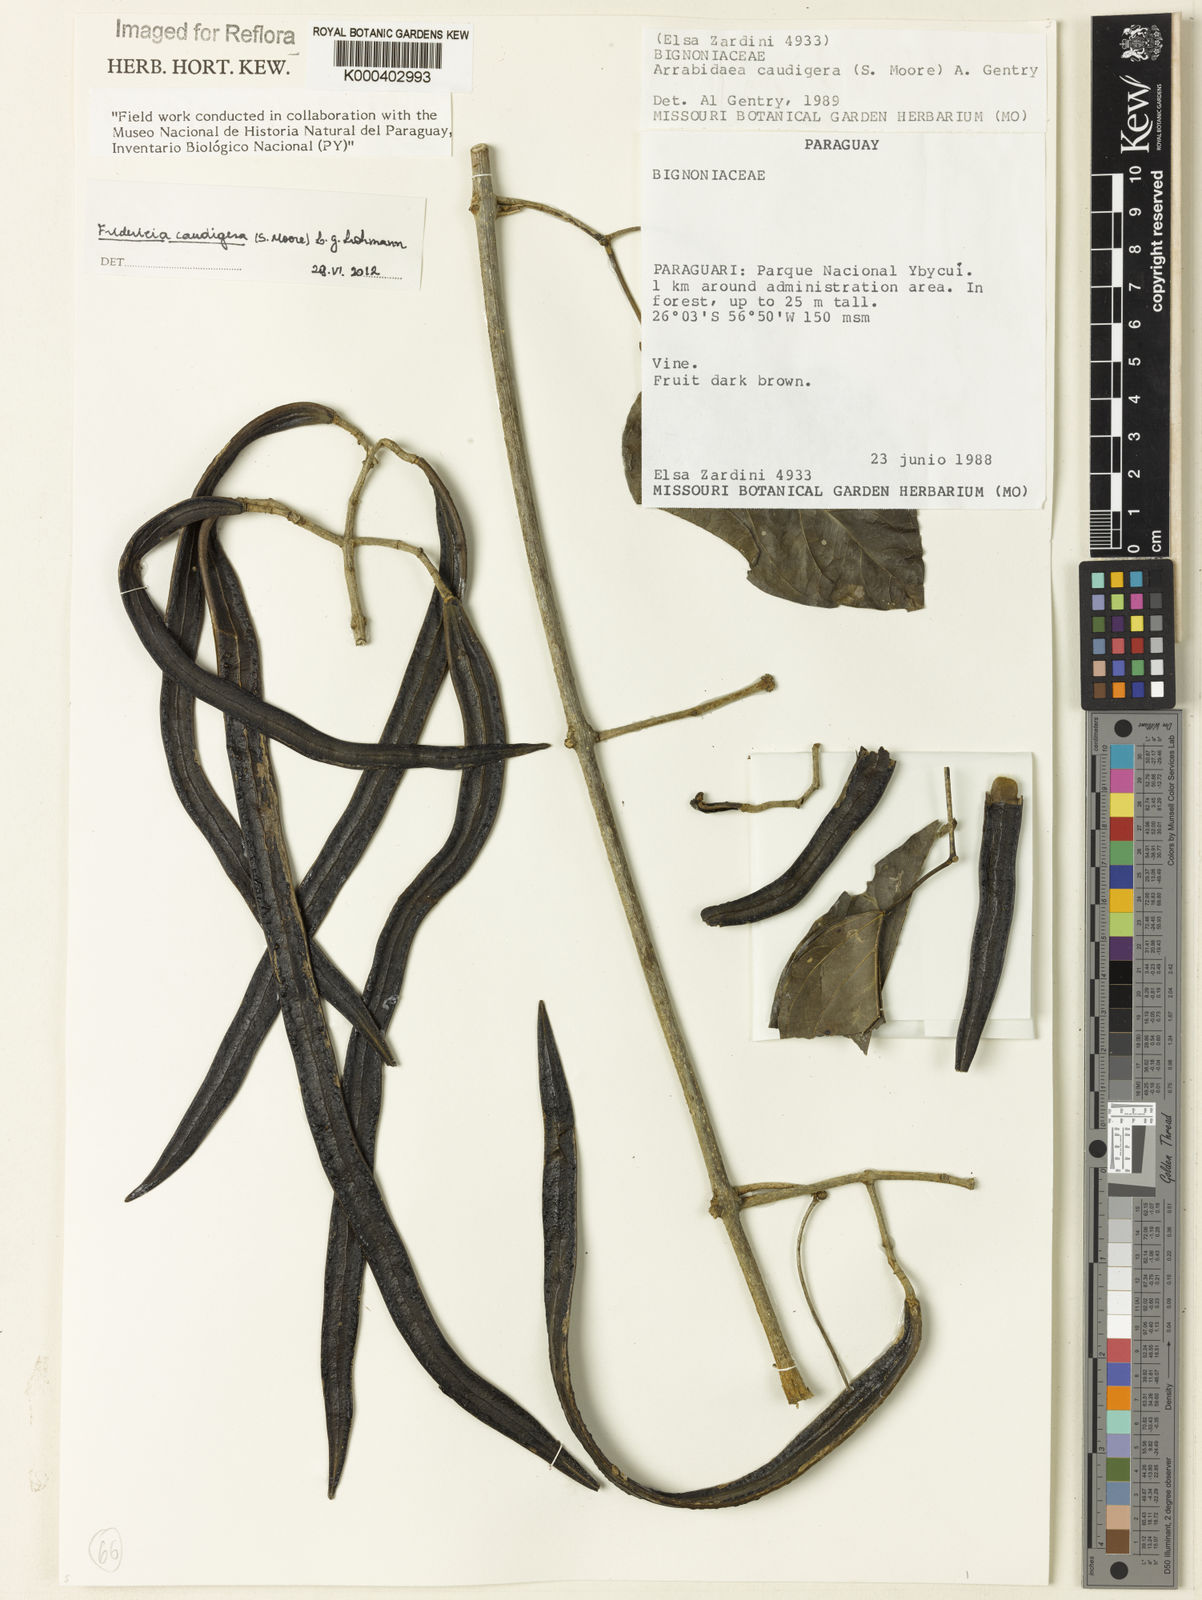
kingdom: Plantae
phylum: Tracheophyta
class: Magnoliopsida
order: Lamiales
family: Bignoniaceae
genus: Fridericia
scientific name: Fridericia caudigera
